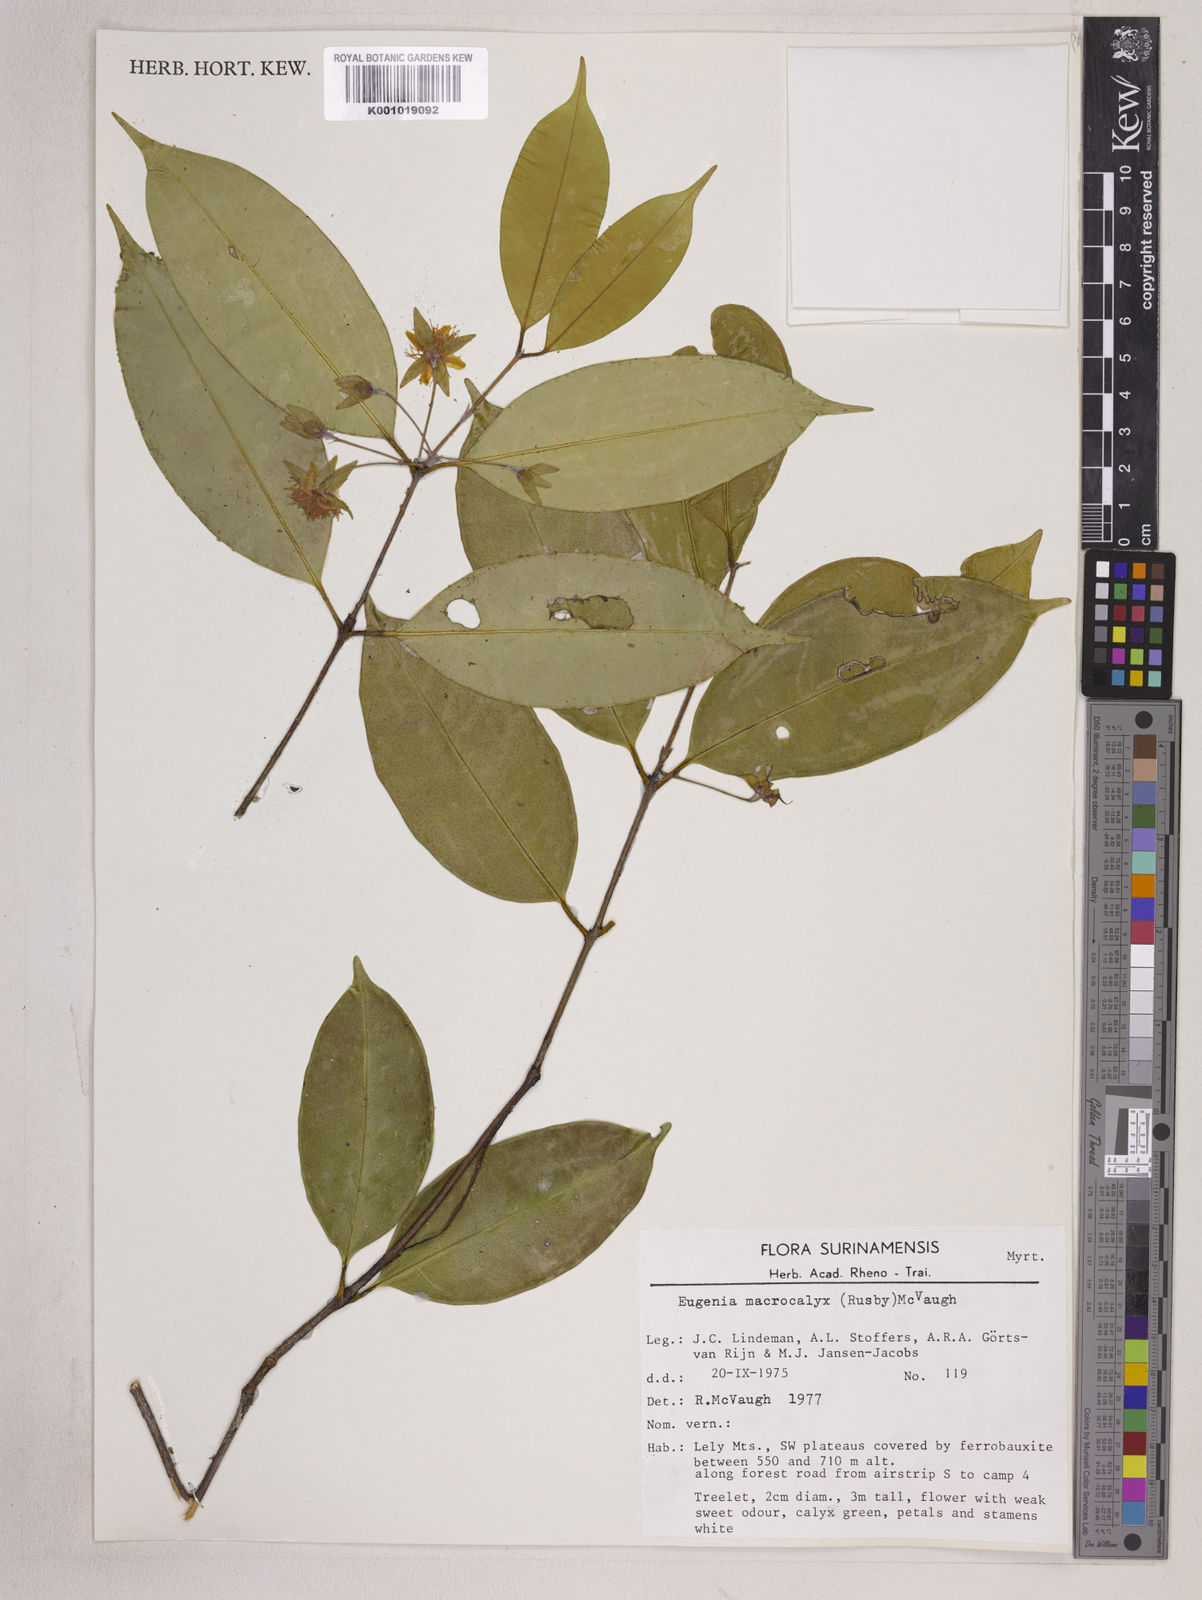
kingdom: Plantae
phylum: Tracheophyta
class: Magnoliopsida
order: Myrtales
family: Myrtaceae
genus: Eugenia
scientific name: Eugenia wentii
